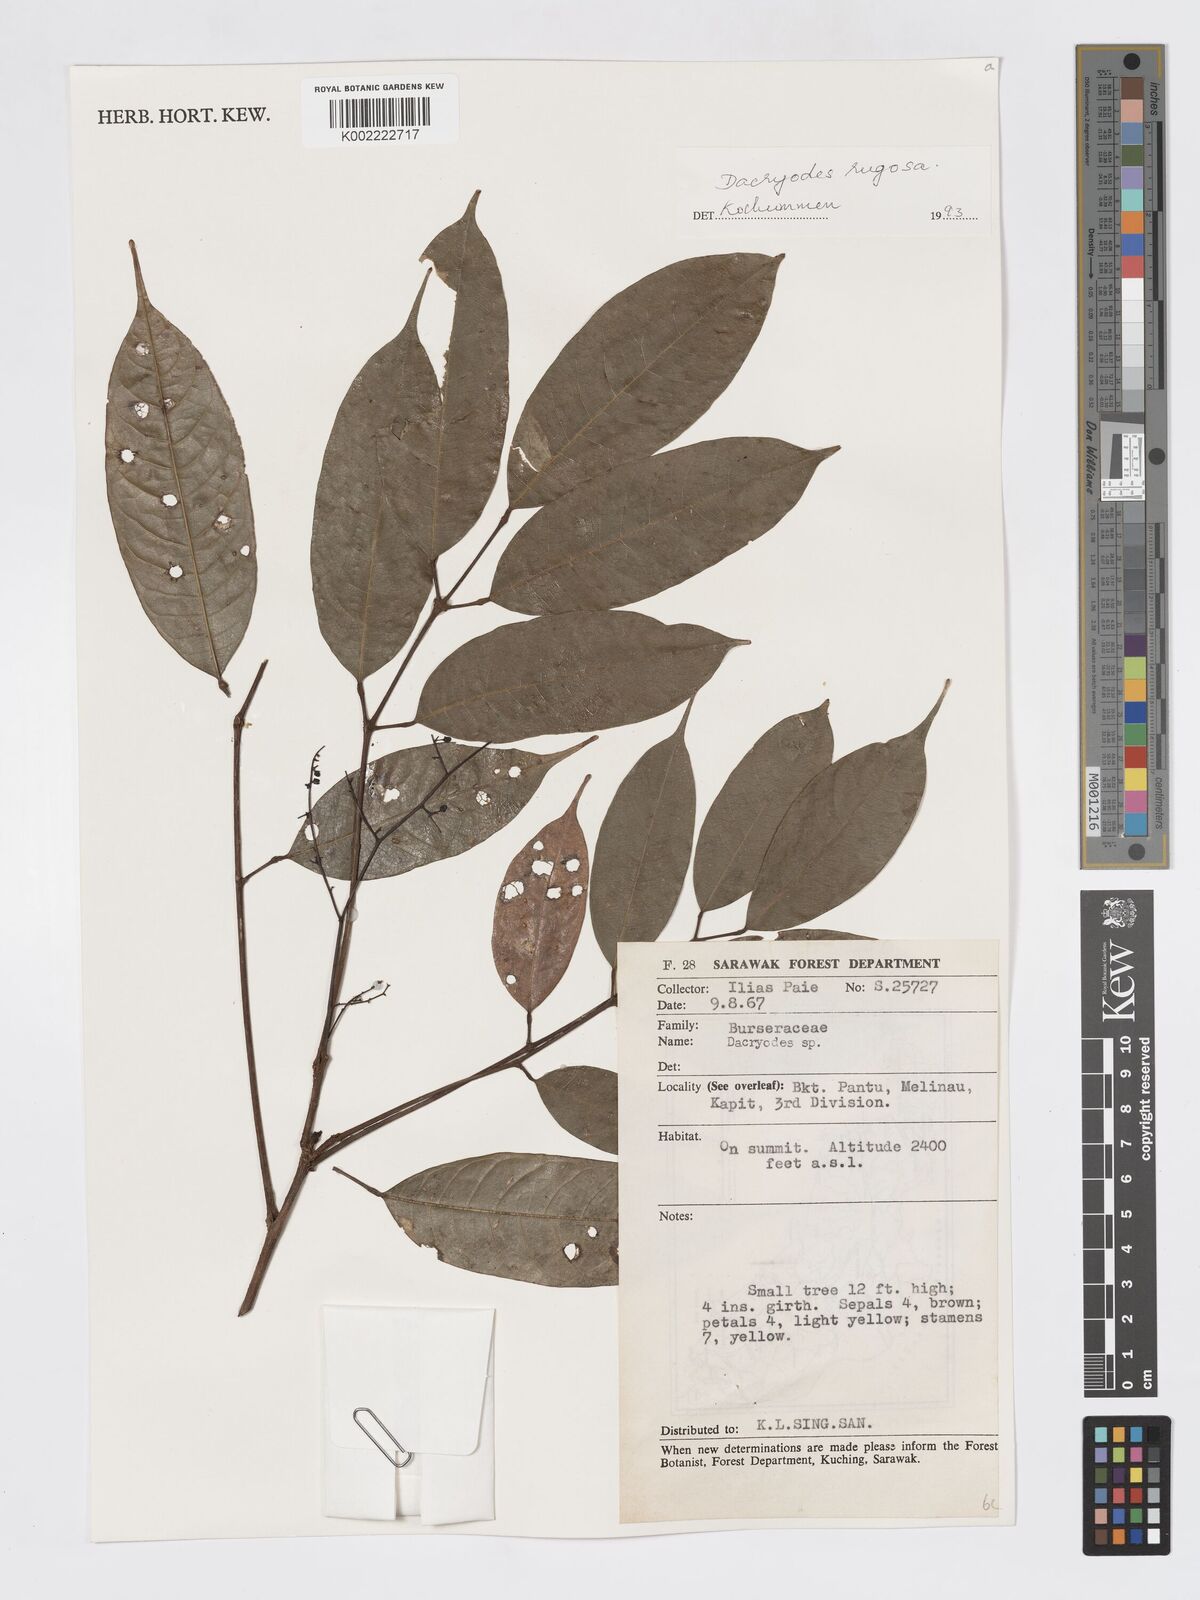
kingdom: Plantae
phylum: Tracheophyta
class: Magnoliopsida
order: Sapindales
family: Burseraceae
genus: Dacryodes
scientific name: Dacryodes rugosa
